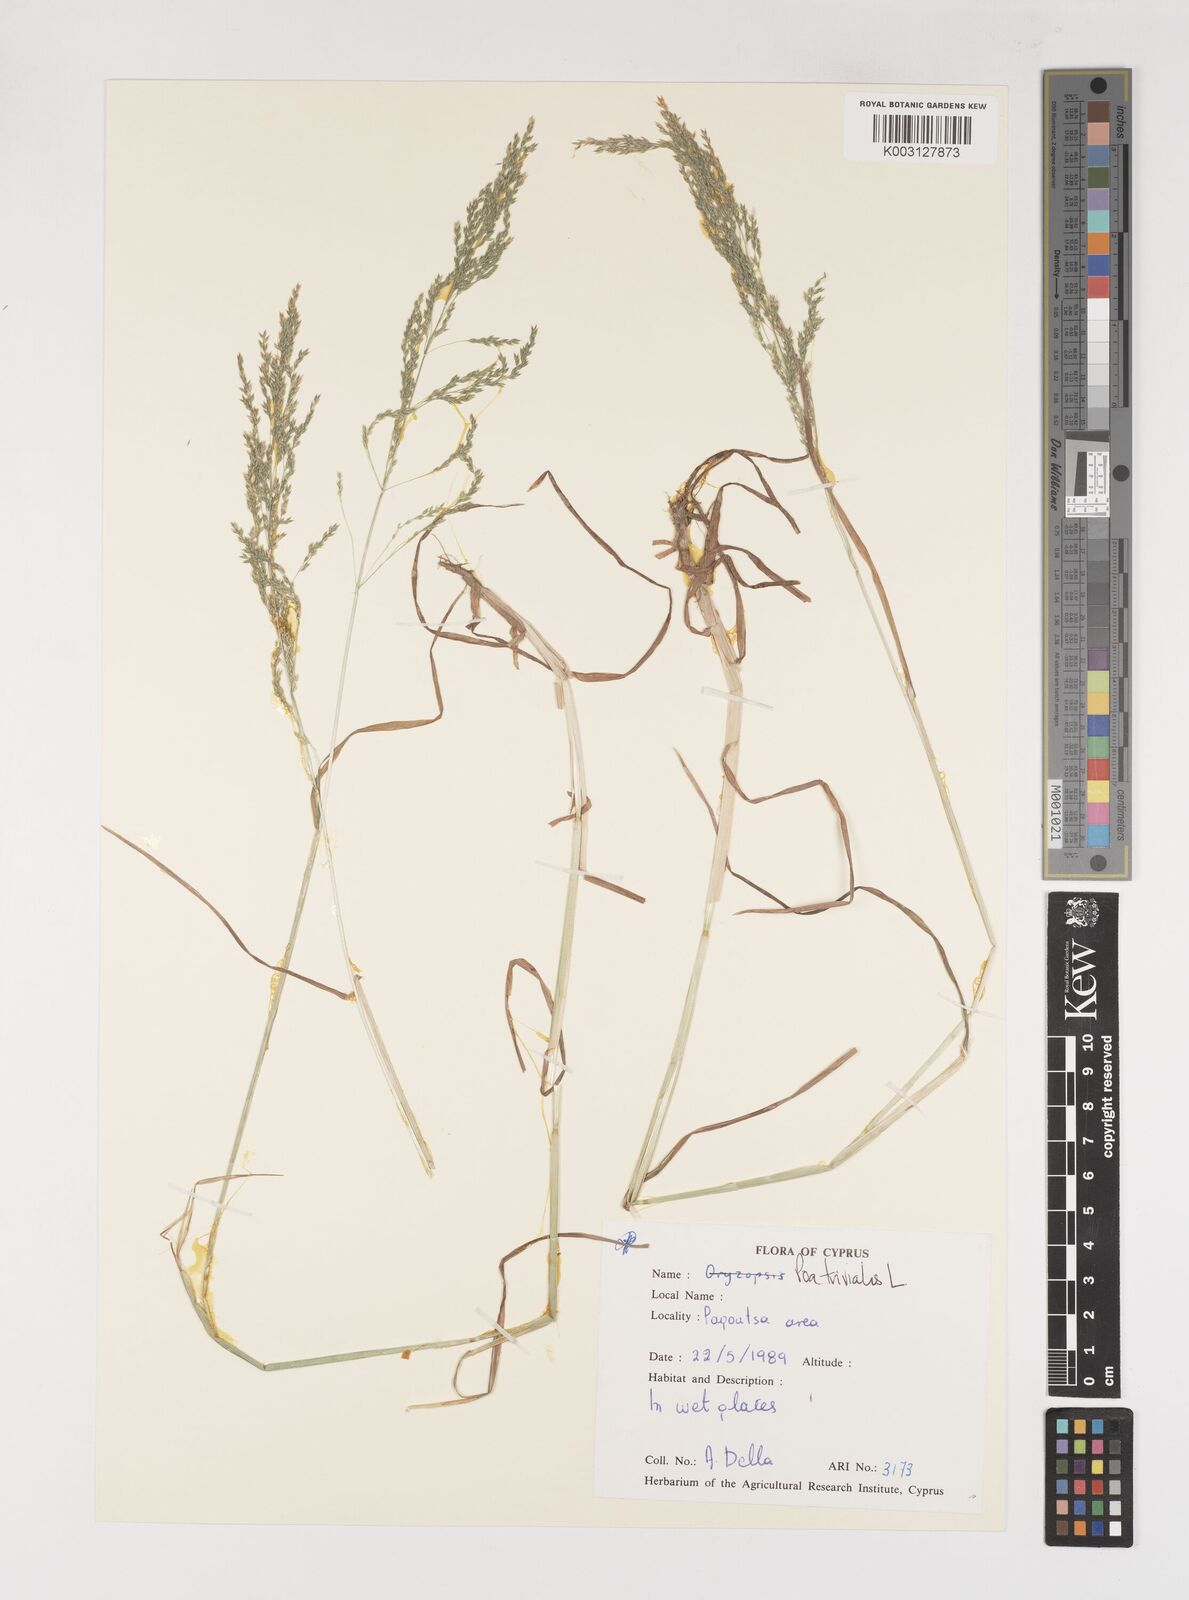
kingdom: Plantae
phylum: Tracheophyta
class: Liliopsida
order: Poales
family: Poaceae
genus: Poa
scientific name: Poa trivialis
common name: Rough bluegrass
